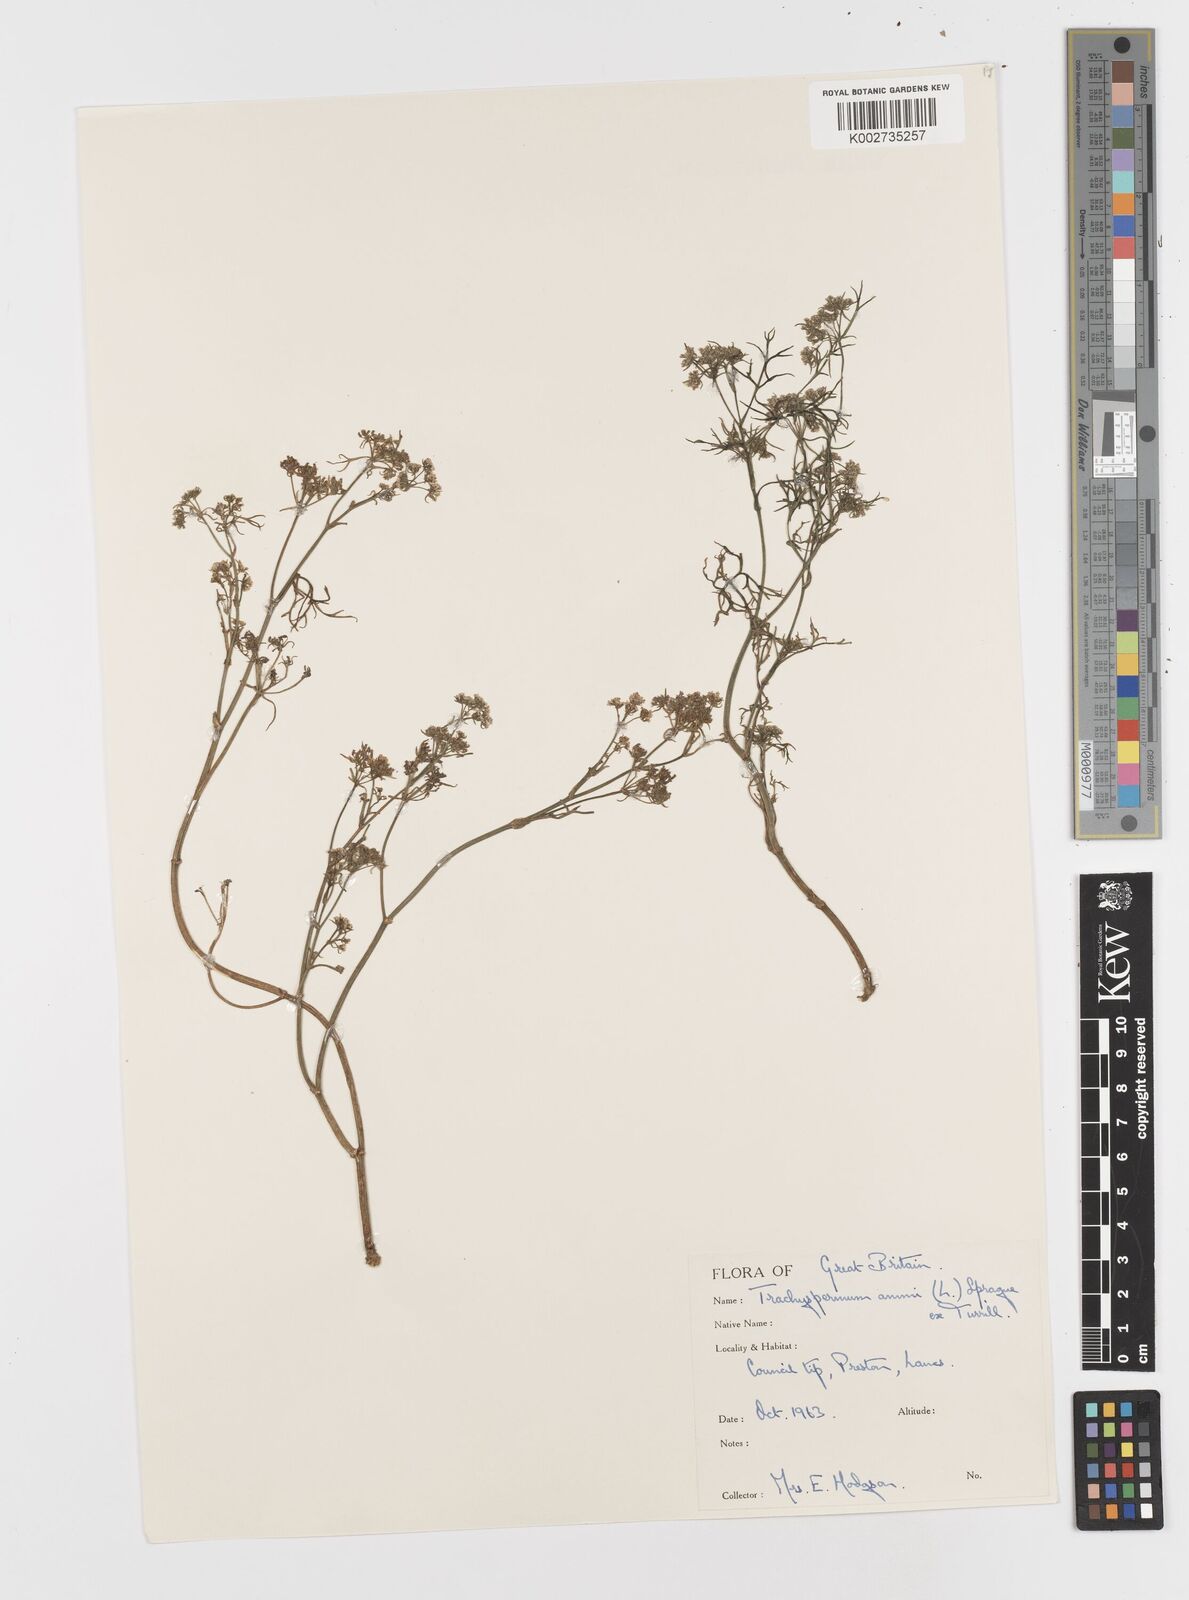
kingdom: Plantae
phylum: Tracheophyta
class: Magnoliopsida
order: Apiales
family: Apiaceae
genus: Trachyspermum
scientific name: Trachyspermum ammi
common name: Ajowan
